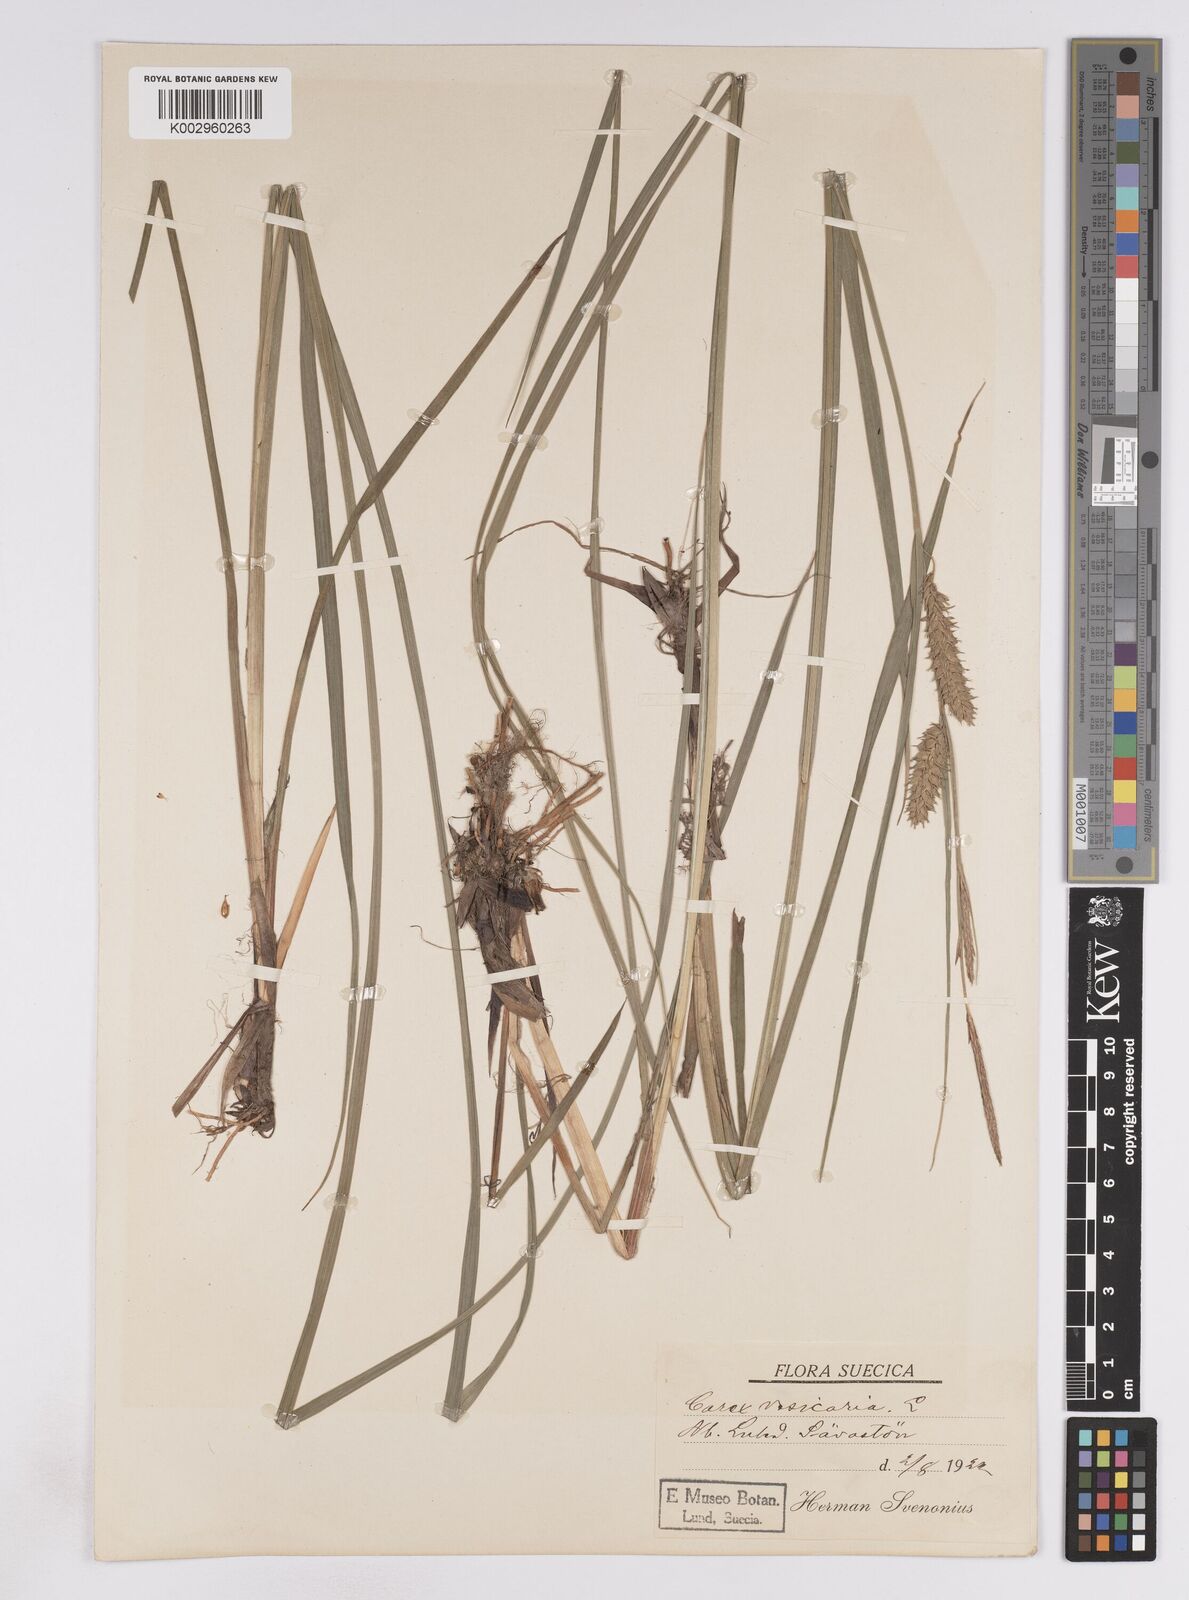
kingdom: Plantae
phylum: Tracheophyta
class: Liliopsida
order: Poales
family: Cyperaceae
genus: Carex
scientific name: Carex vesicaria
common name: Bladder-sedge
